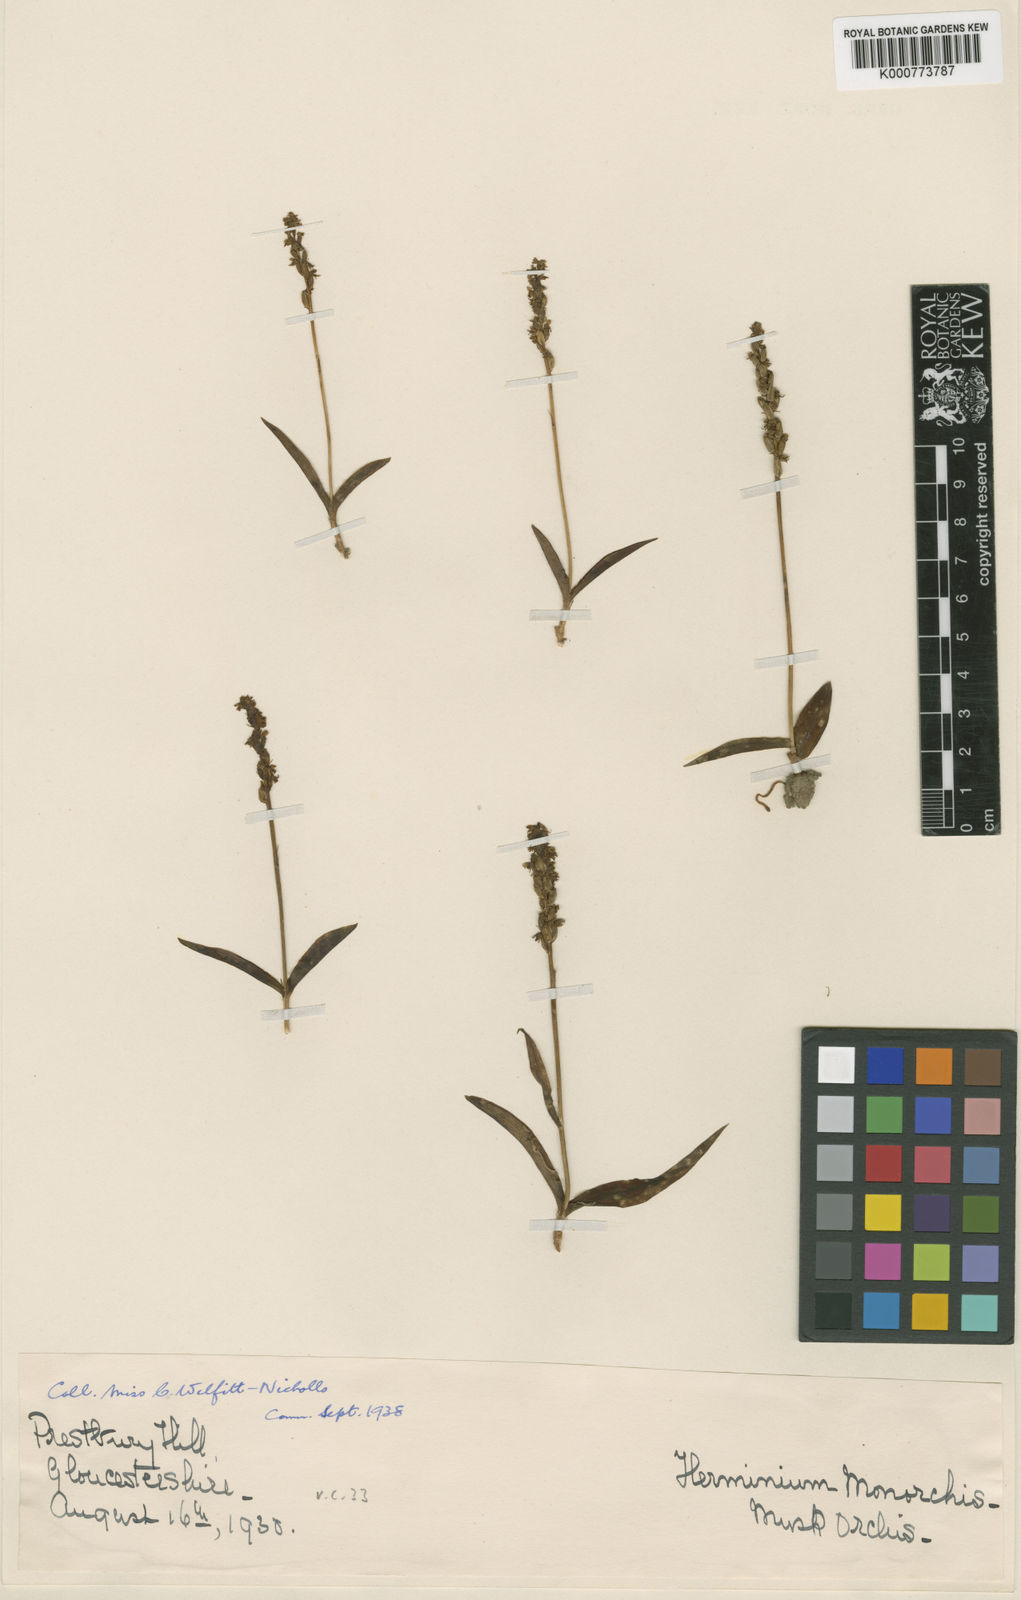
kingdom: Plantae
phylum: Tracheophyta
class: Liliopsida
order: Asparagales
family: Orchidaceae
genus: Herminium
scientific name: Herminium monorchis
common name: Musk orchid
